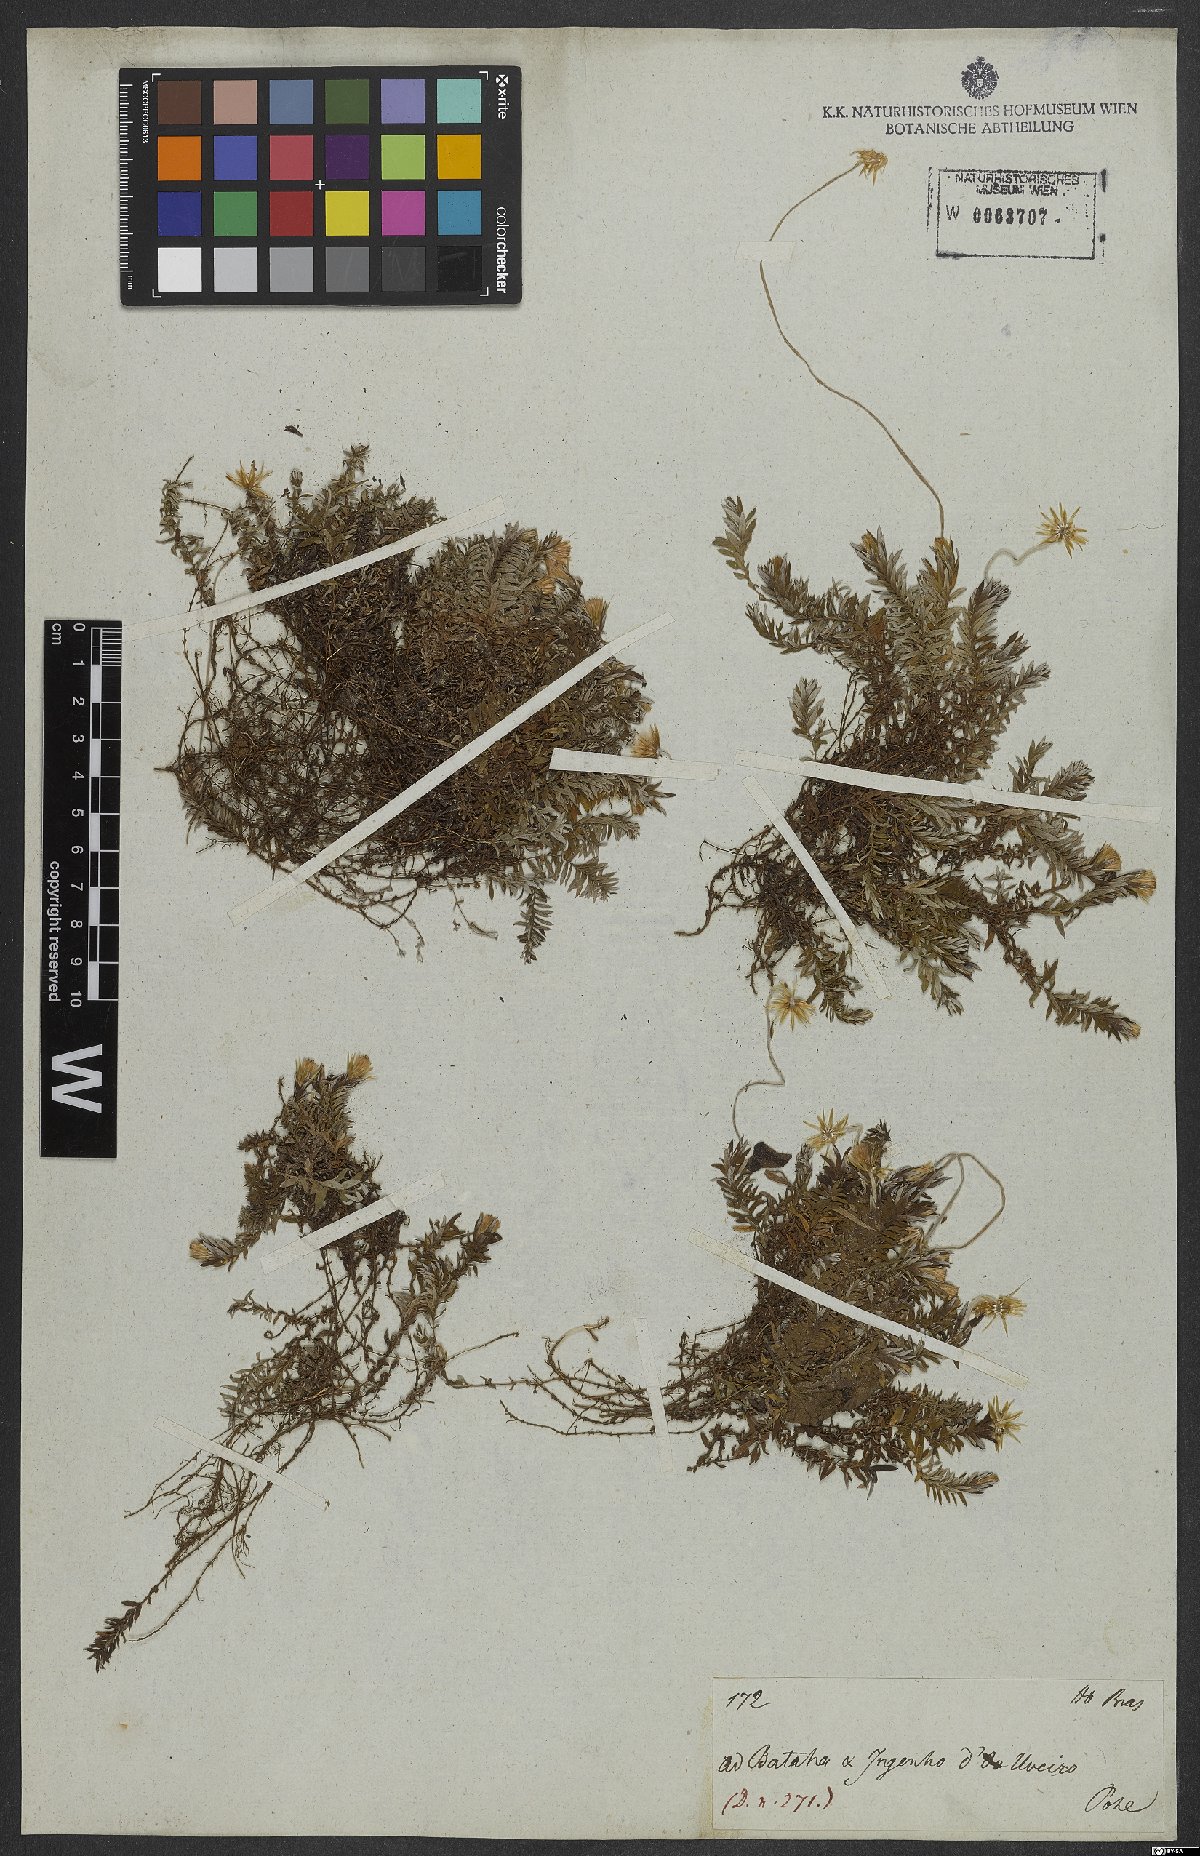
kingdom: Plantae
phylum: Tracheophyta
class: Magnoliopsida
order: Asterales
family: Asteraceae
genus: Facelis
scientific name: Facelis plumosa
